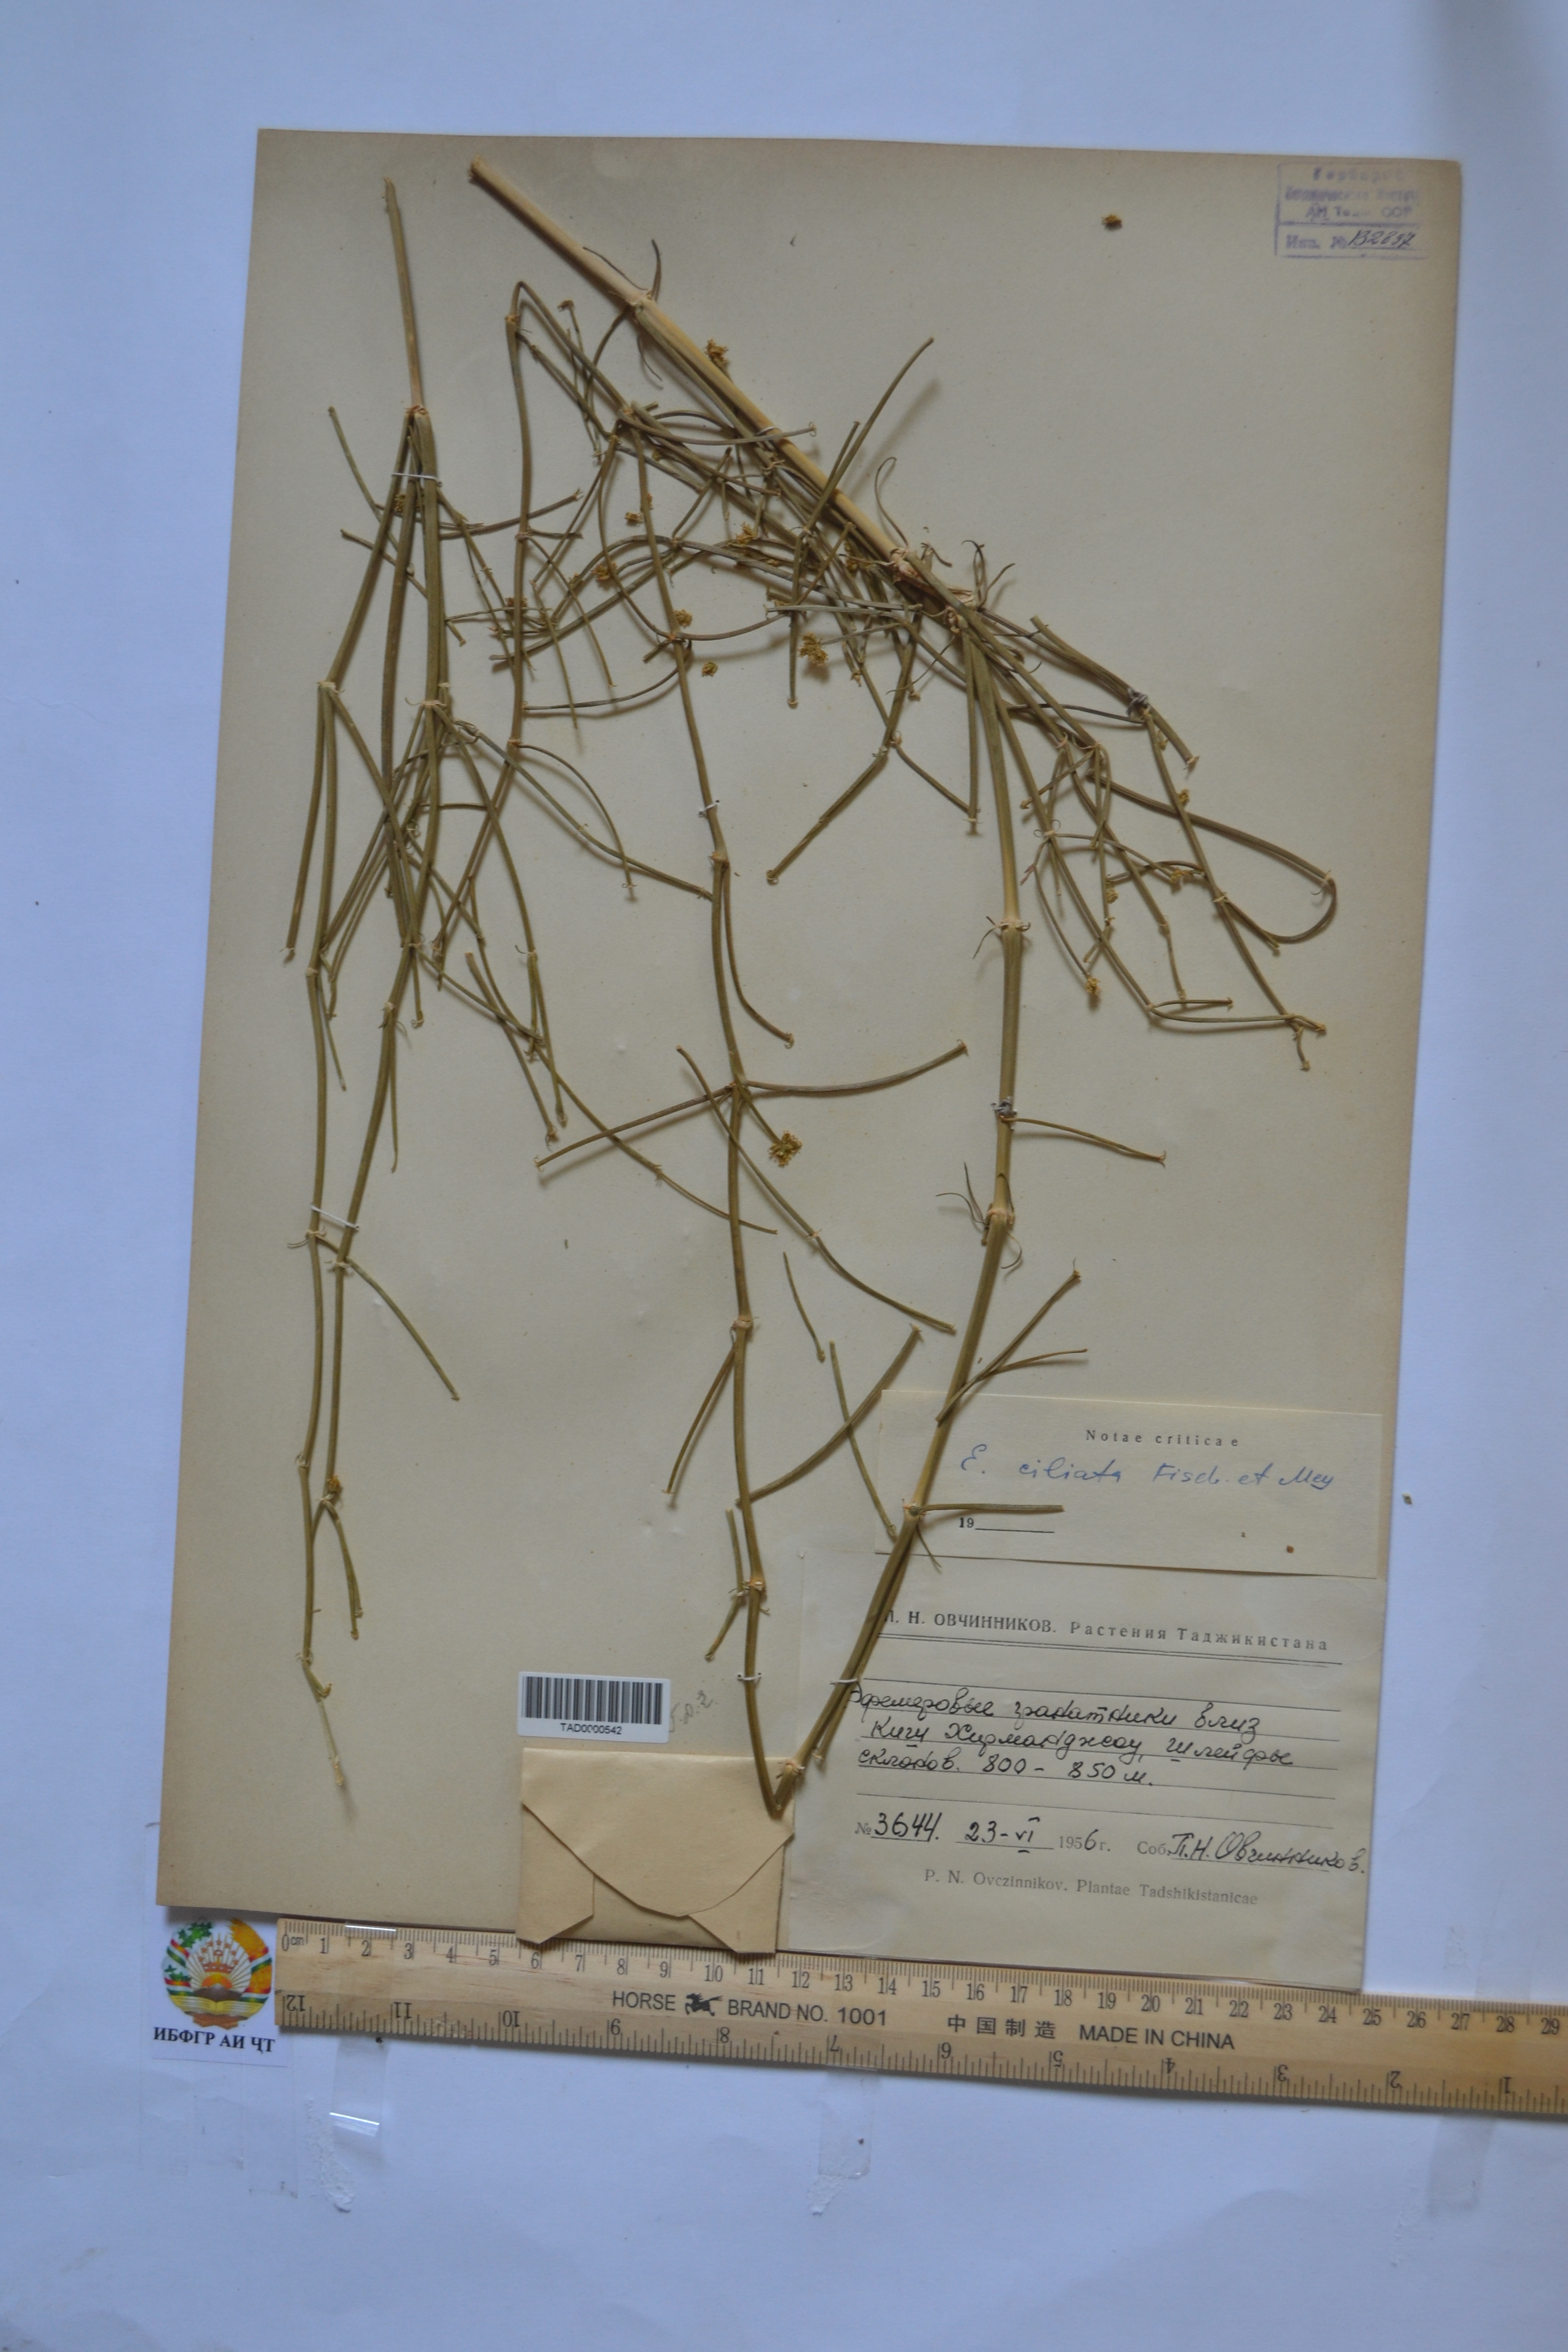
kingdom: Plantae
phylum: Tracheophyta
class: Gnetopsida
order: Ephedrales
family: Ephedraceae
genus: Ephedra
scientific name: Ephedra ciliata
